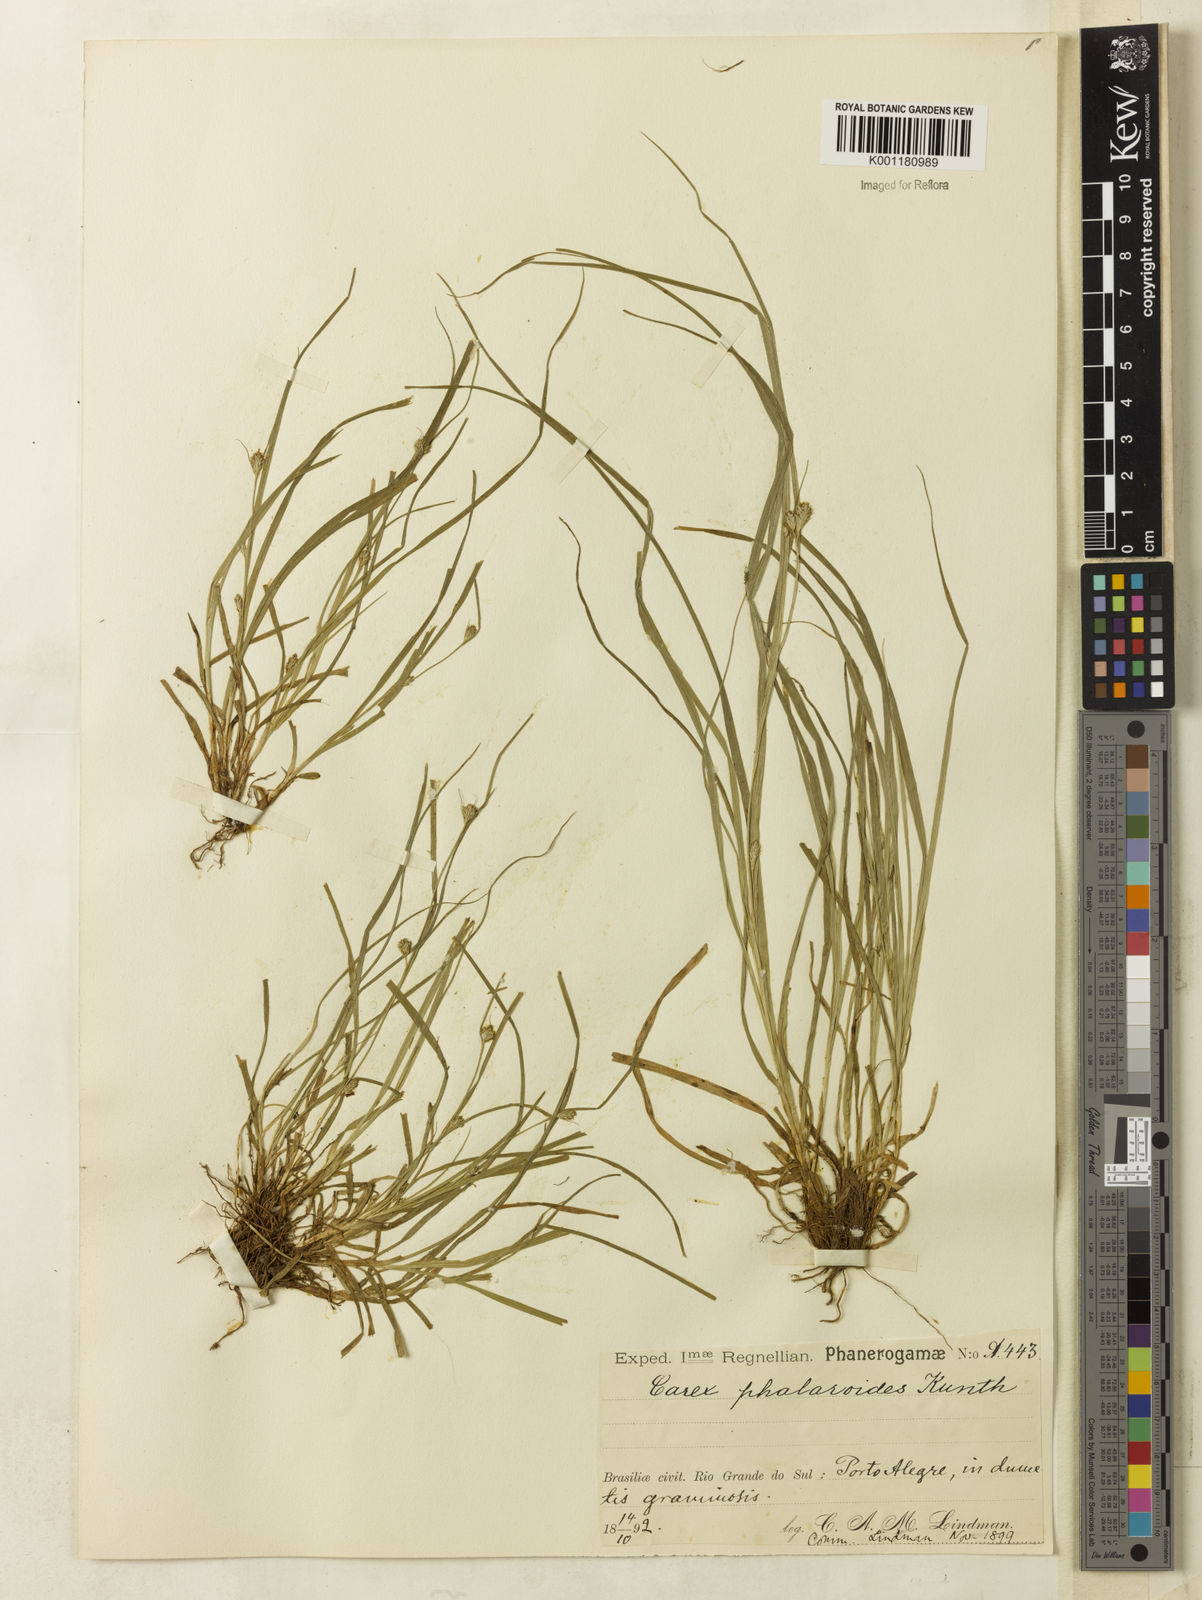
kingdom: Plantae
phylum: Tracheophyta
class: Liliopsida
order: Poales
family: Cyperaceae
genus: Carex
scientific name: Carex phalaroides
